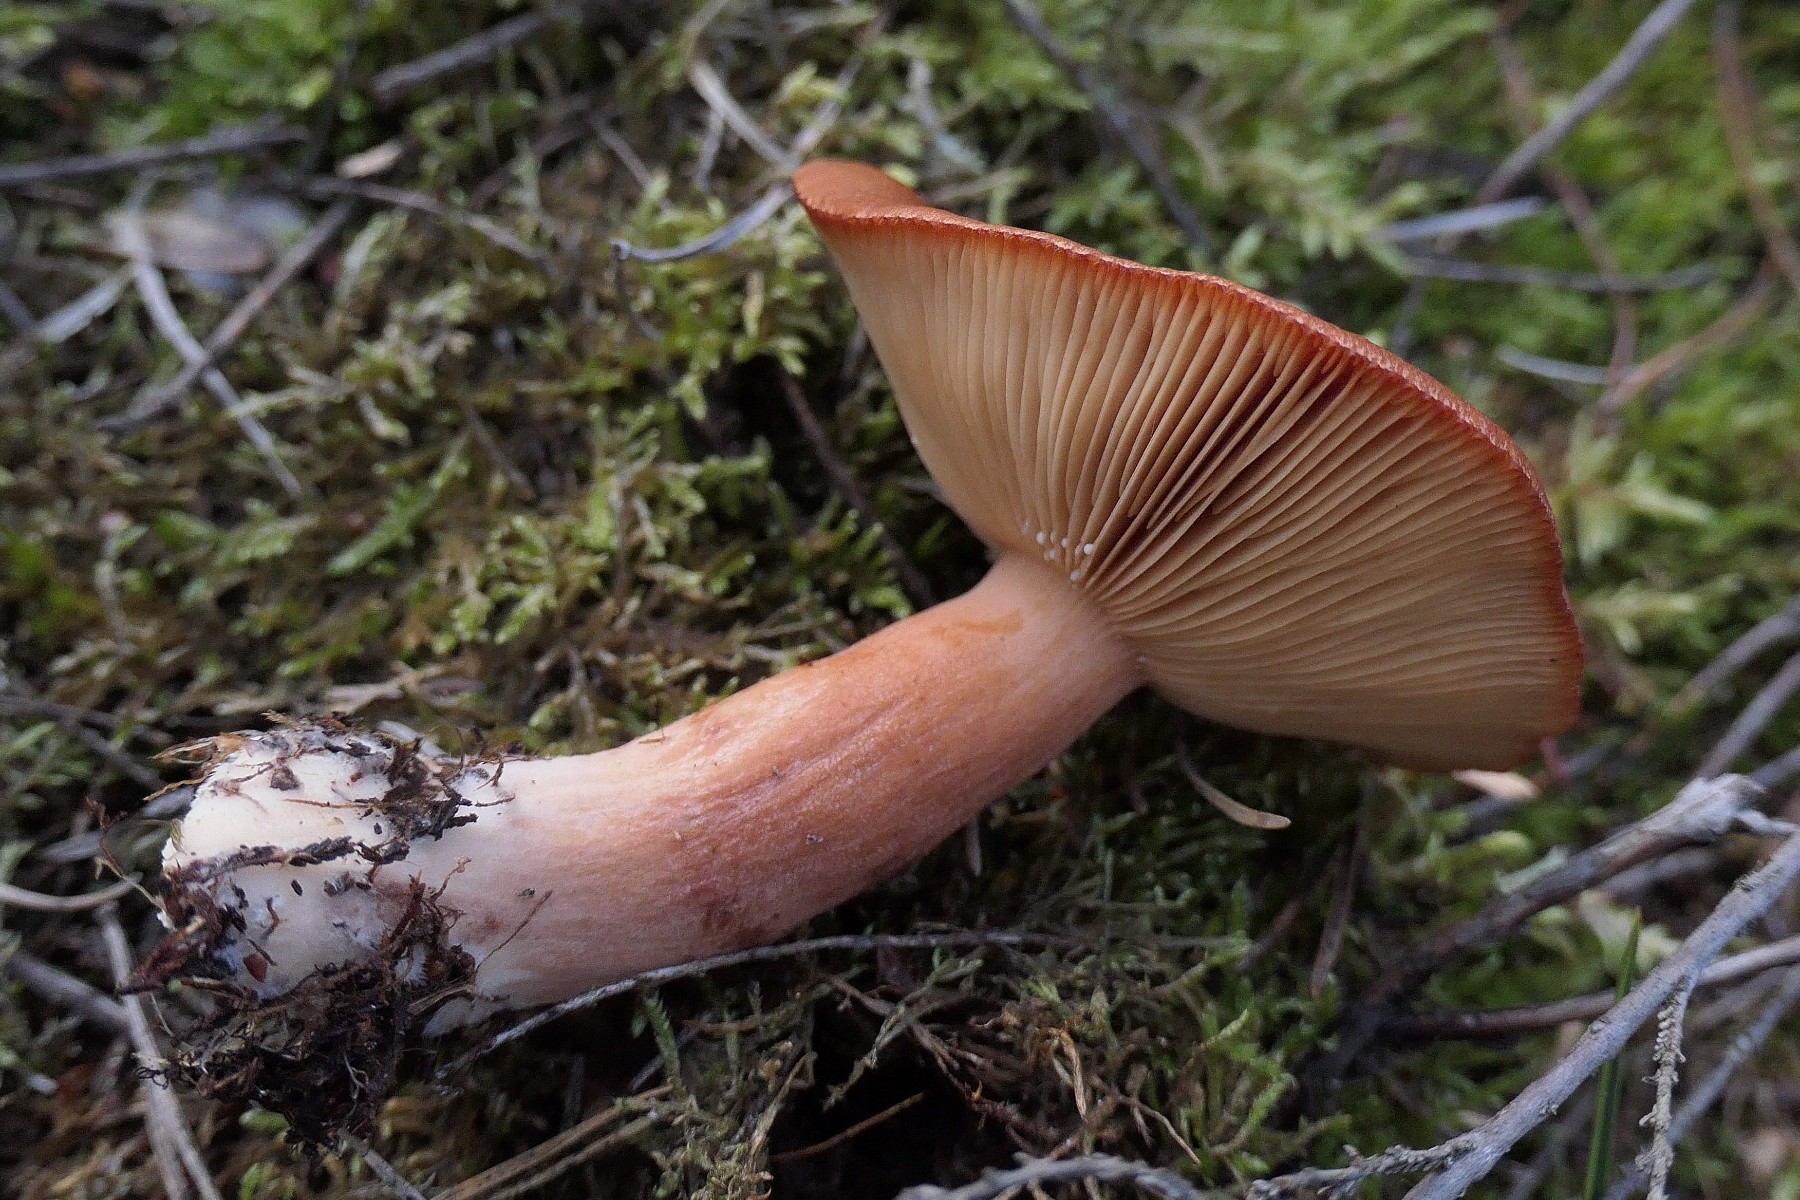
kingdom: Fungi
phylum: Basidiomycota
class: Agaricomycetes
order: Russulales
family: Russulaceae
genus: Lactarius
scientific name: Lactarius rufus
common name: rødbrun mælkehat
